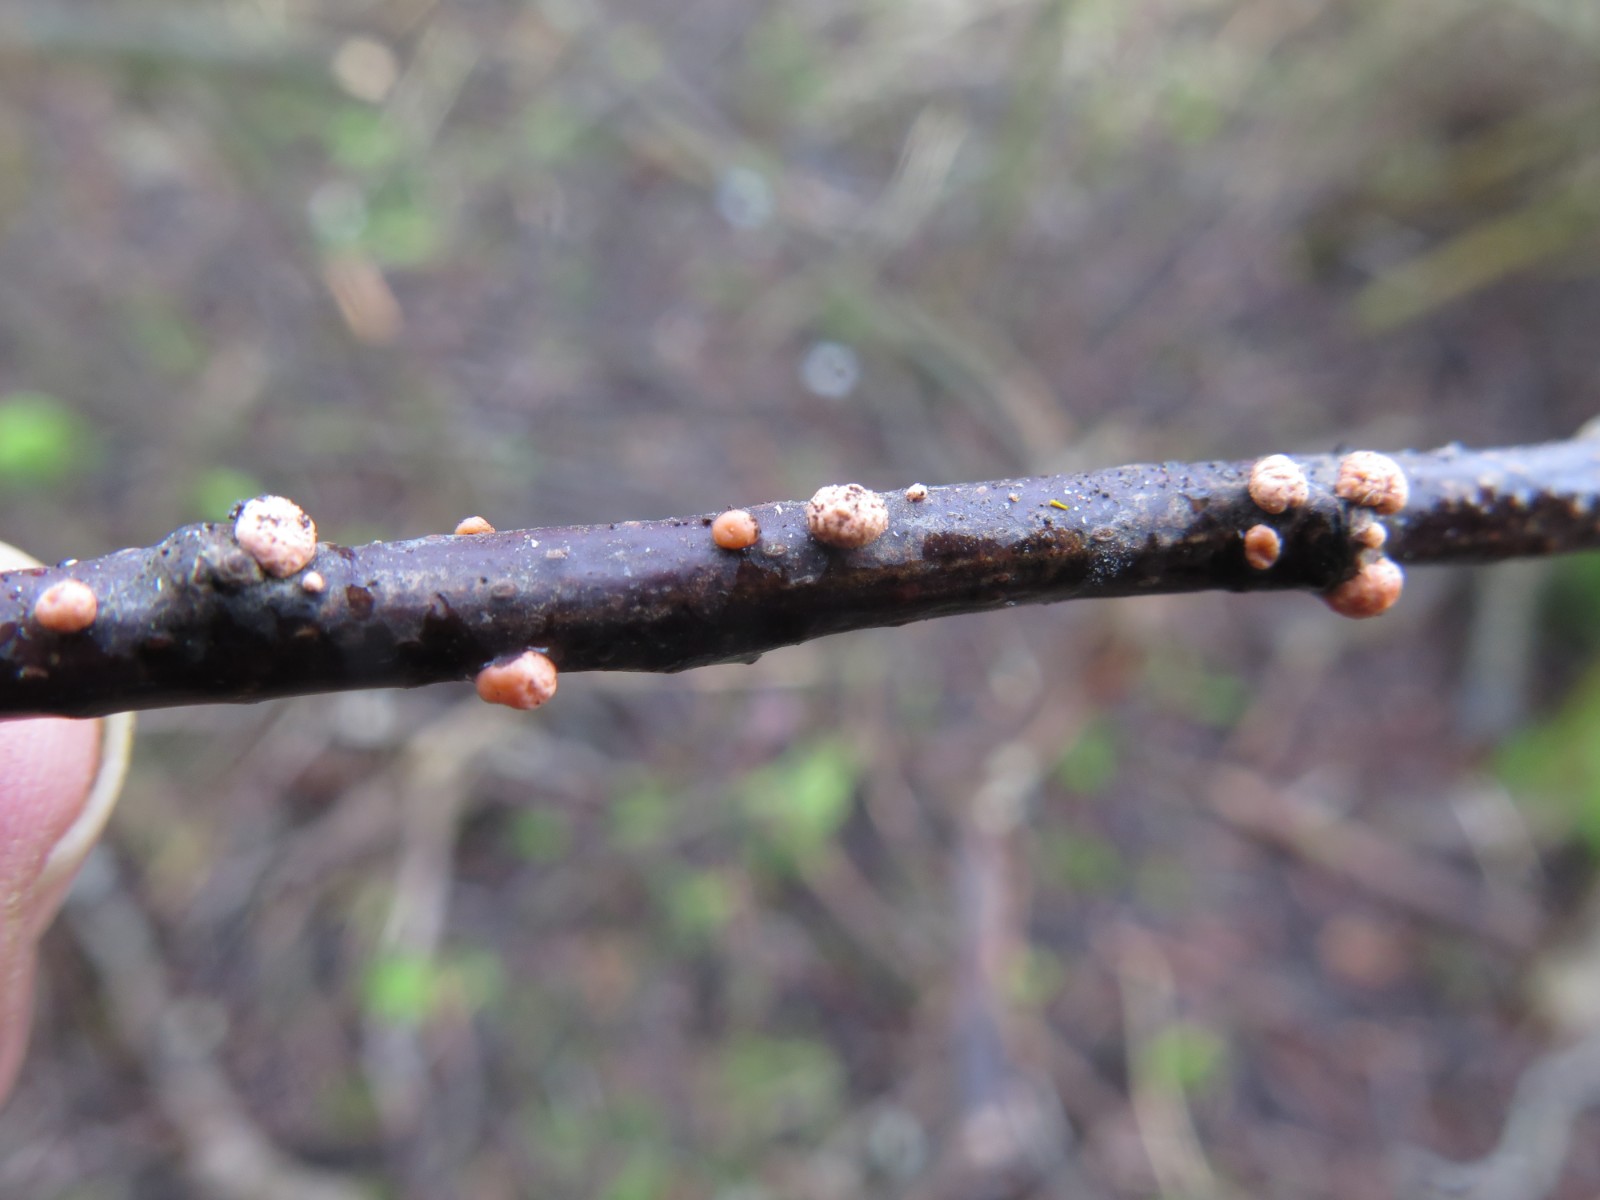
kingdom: Fungi
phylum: Ascomycota
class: Sordariomycetes
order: Hypocreales
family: Nectriaceae
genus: Nectria
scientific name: Nectria cinnabarina
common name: almindelig cinnobersvamp
